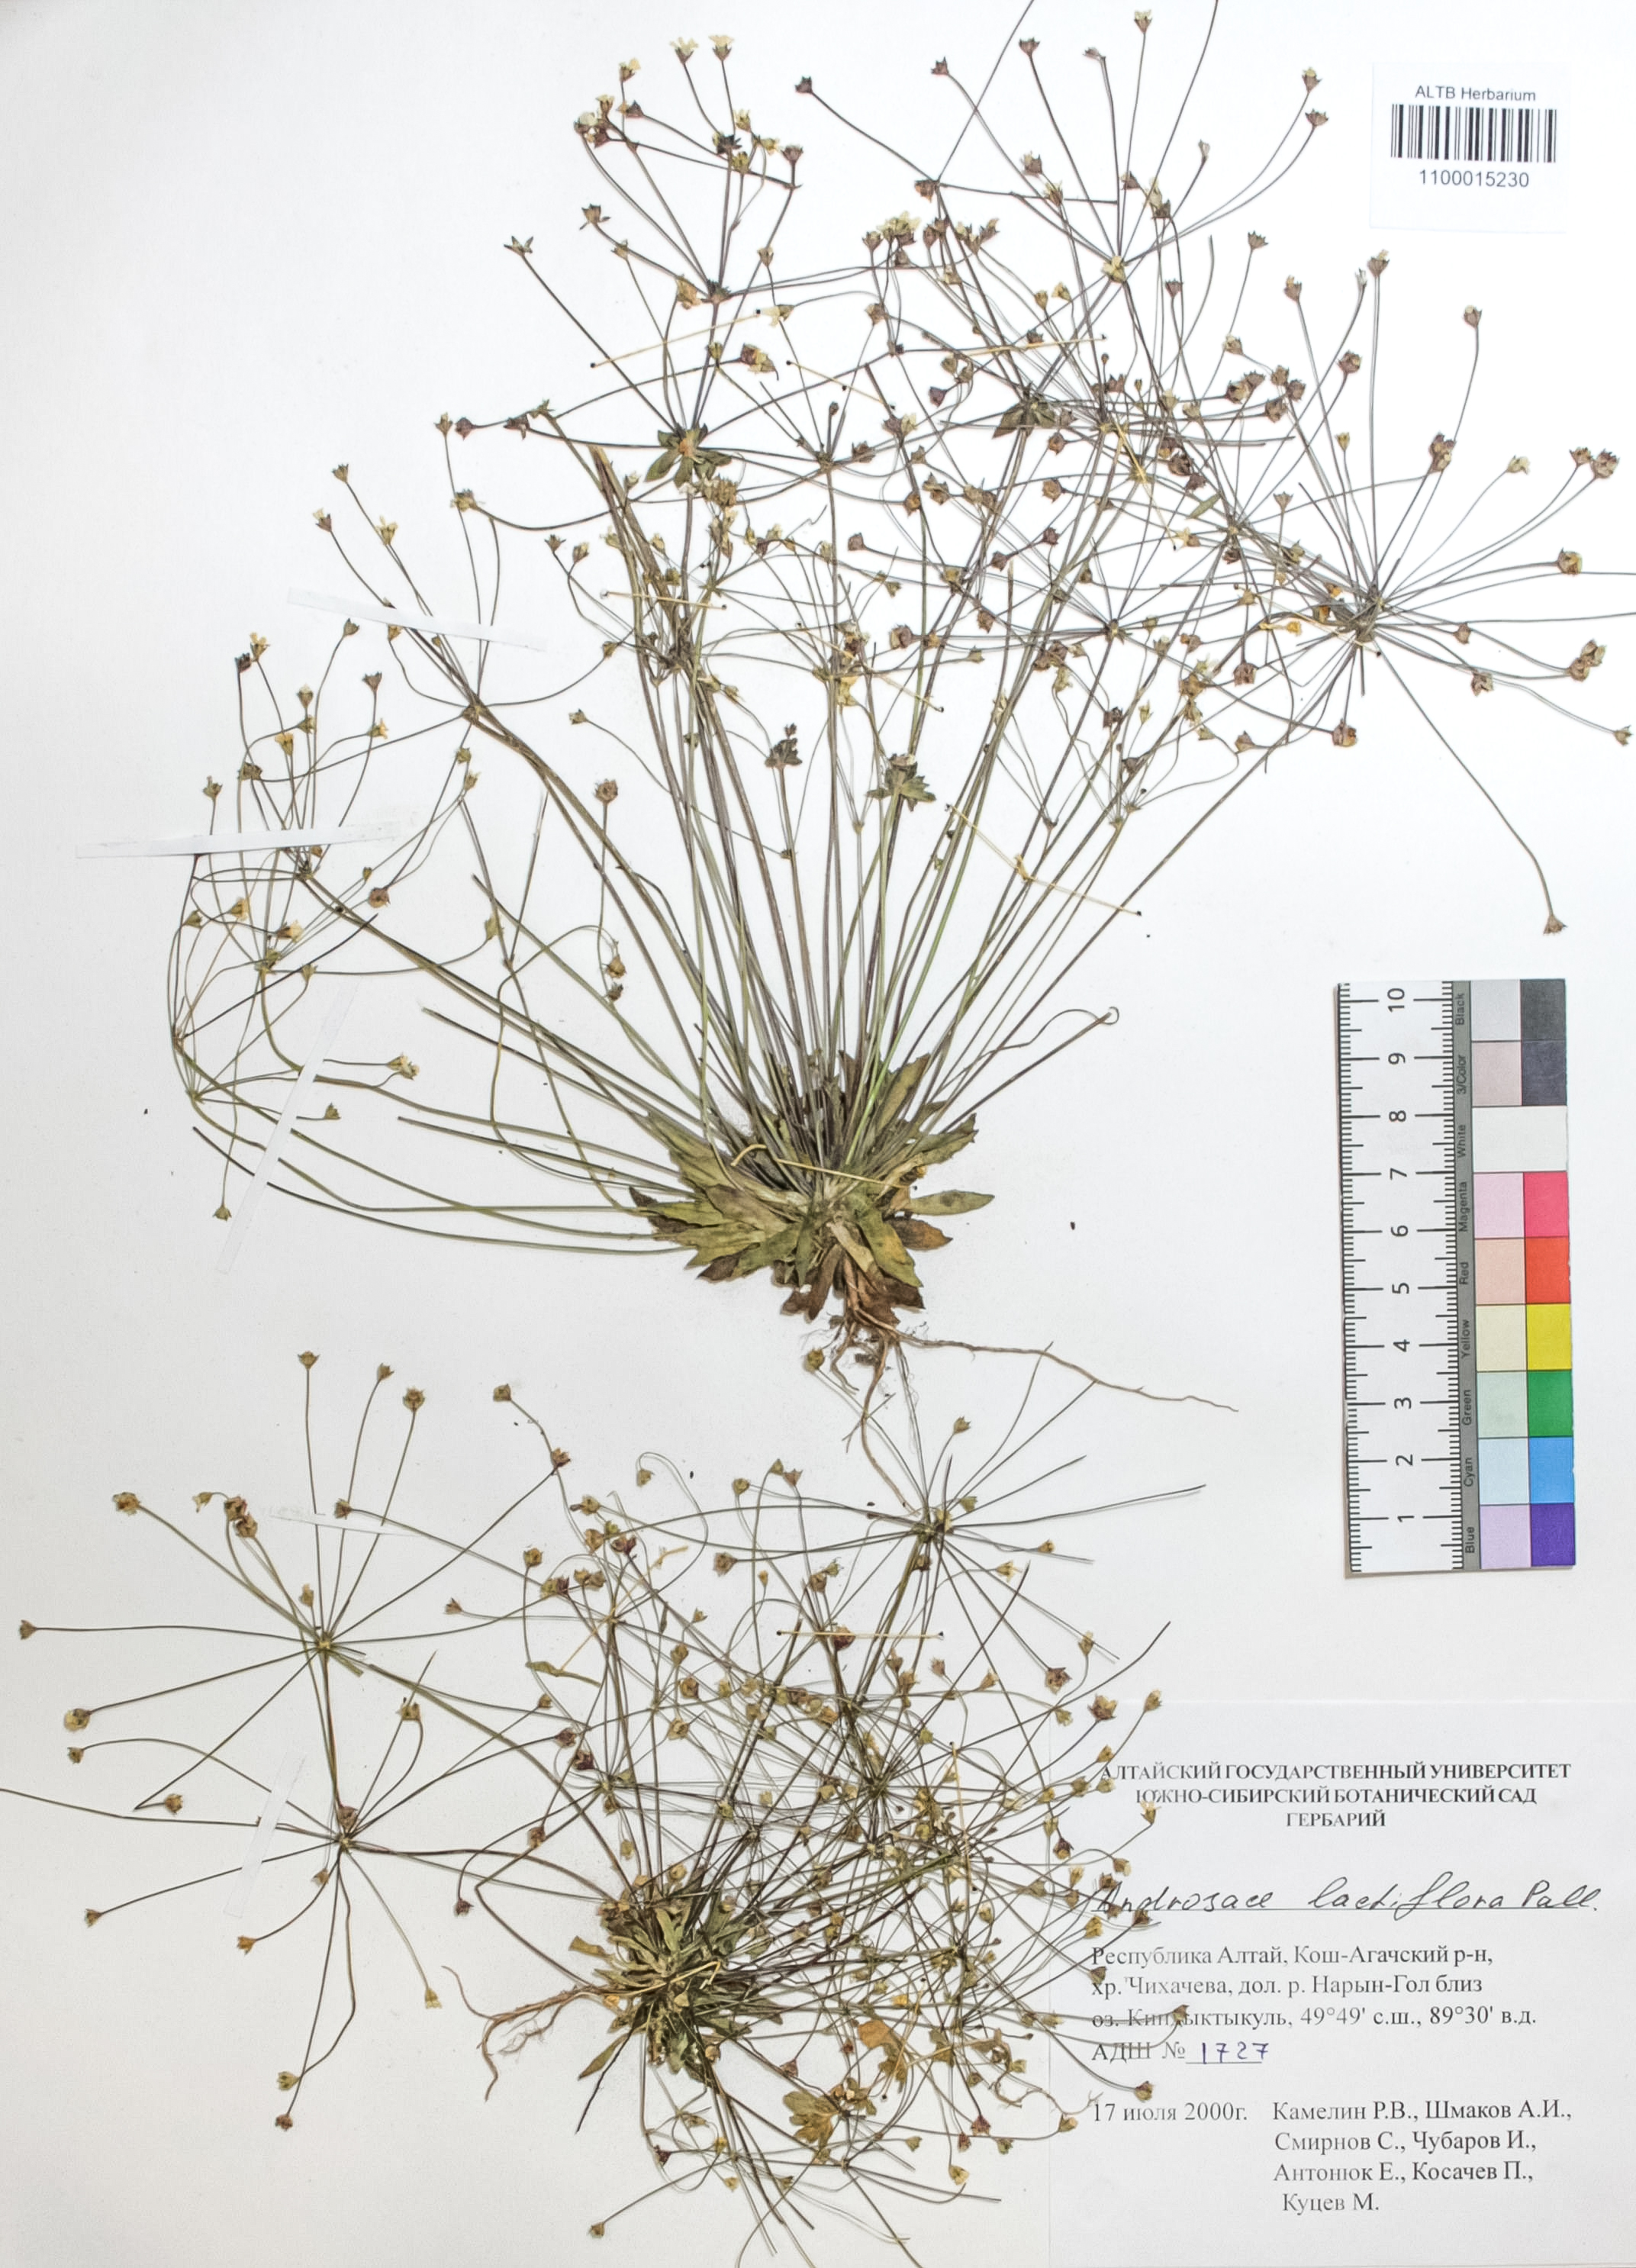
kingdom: Plantae
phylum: Tracheophyta
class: Magnoliopsida
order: Ericales
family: Primulaceae
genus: Androsace
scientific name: Androsace lactiflora
